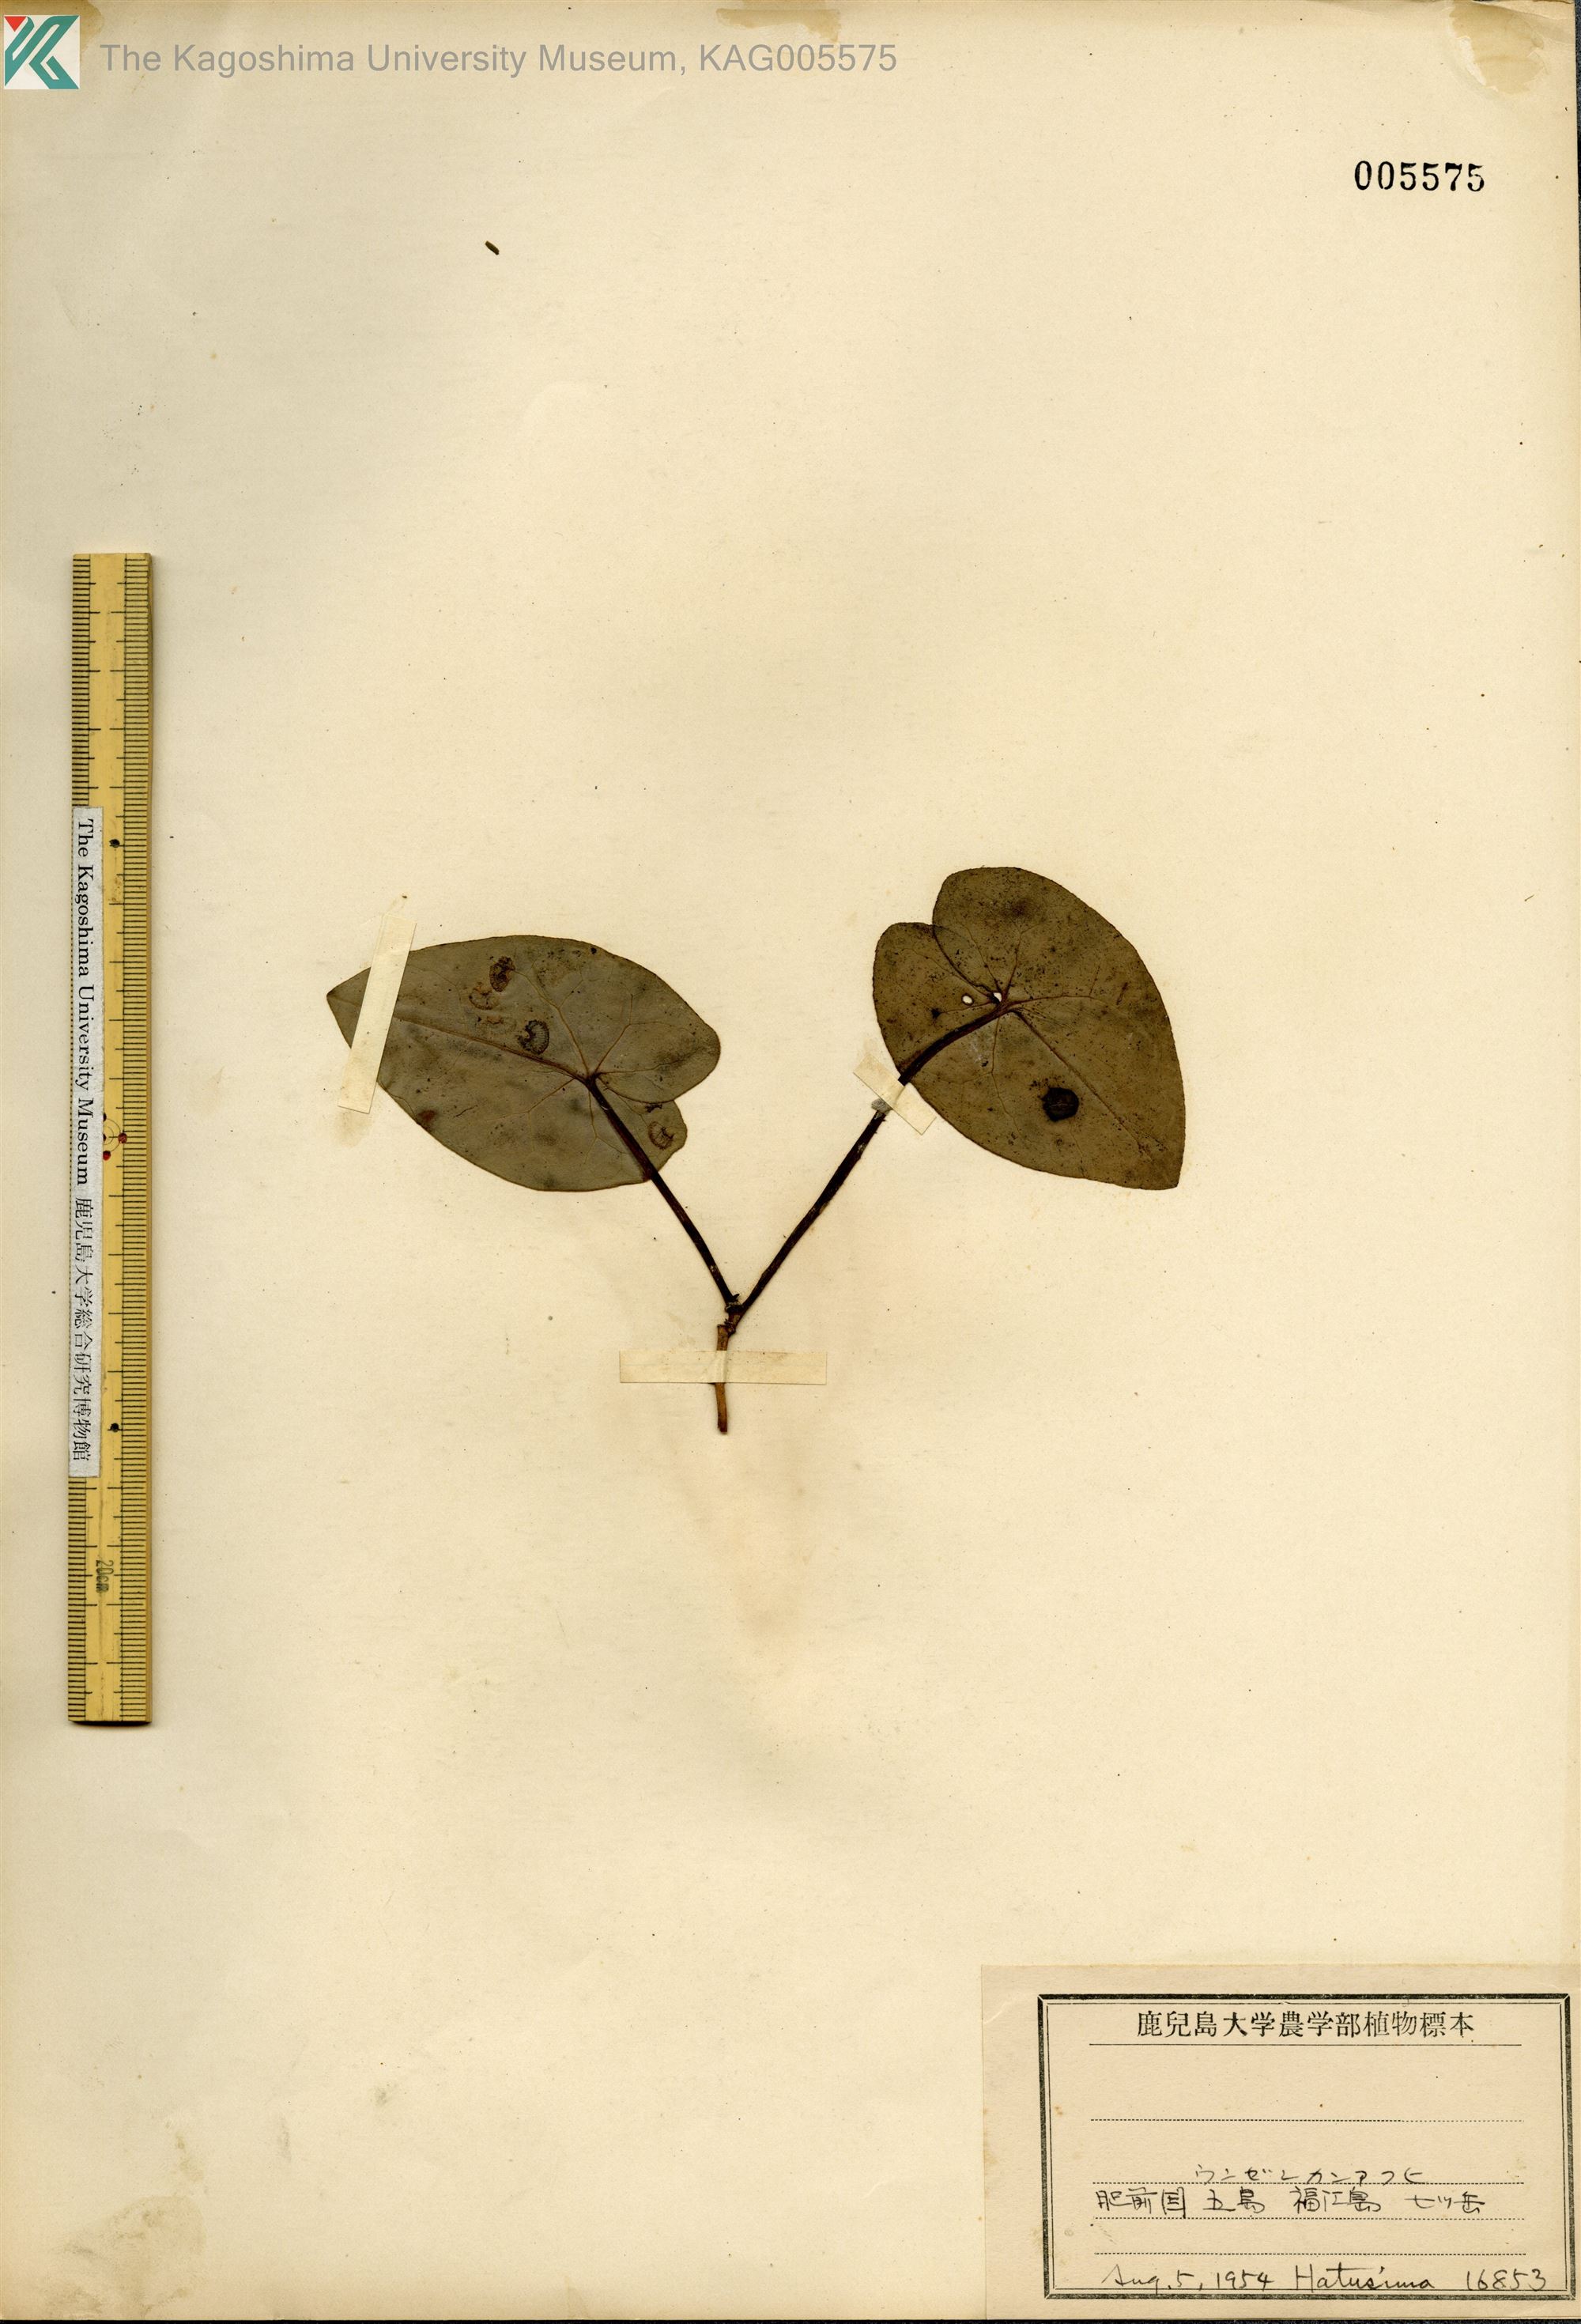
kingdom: Plantae
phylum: Tracheophyta
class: Magnoliopsida
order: Piperales
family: Aristolochiaceae
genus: Asarum
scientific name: Asarum kiusianum
